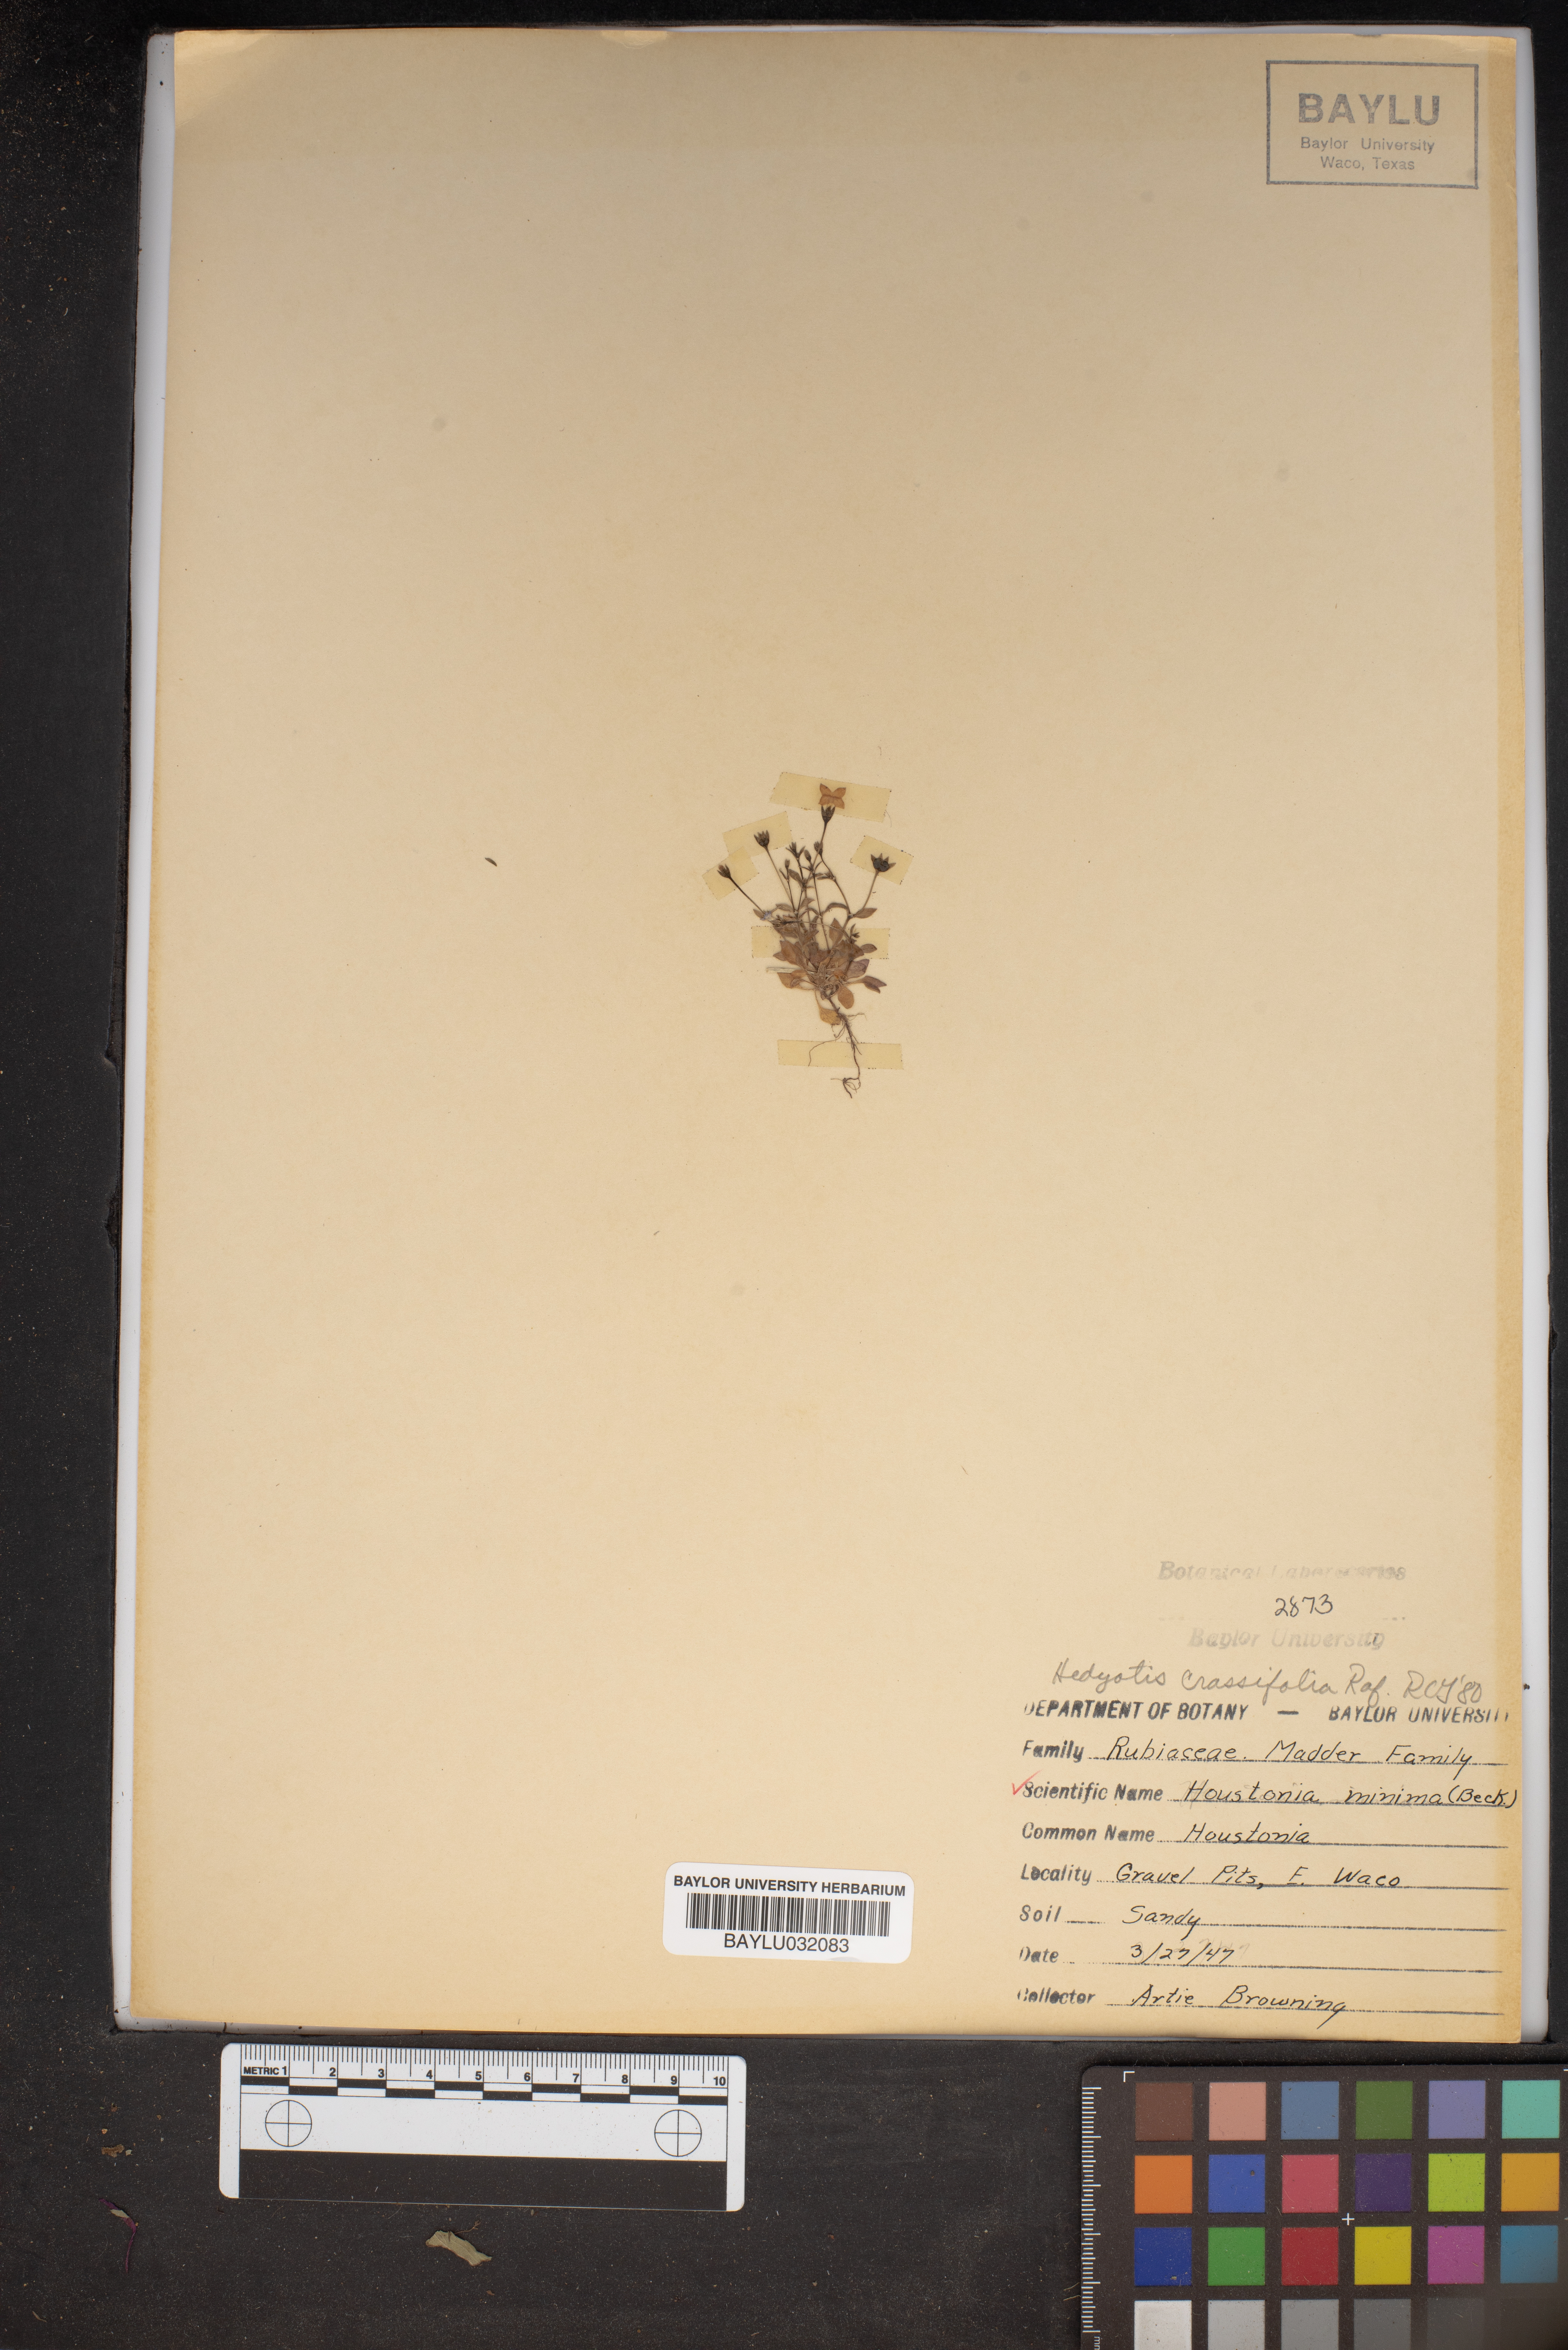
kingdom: Plantae
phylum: Tracheophyta
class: Magnoliopsida
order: Gentianales
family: Rubiaceae
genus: Houstonia
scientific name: Houstonia pusilla
